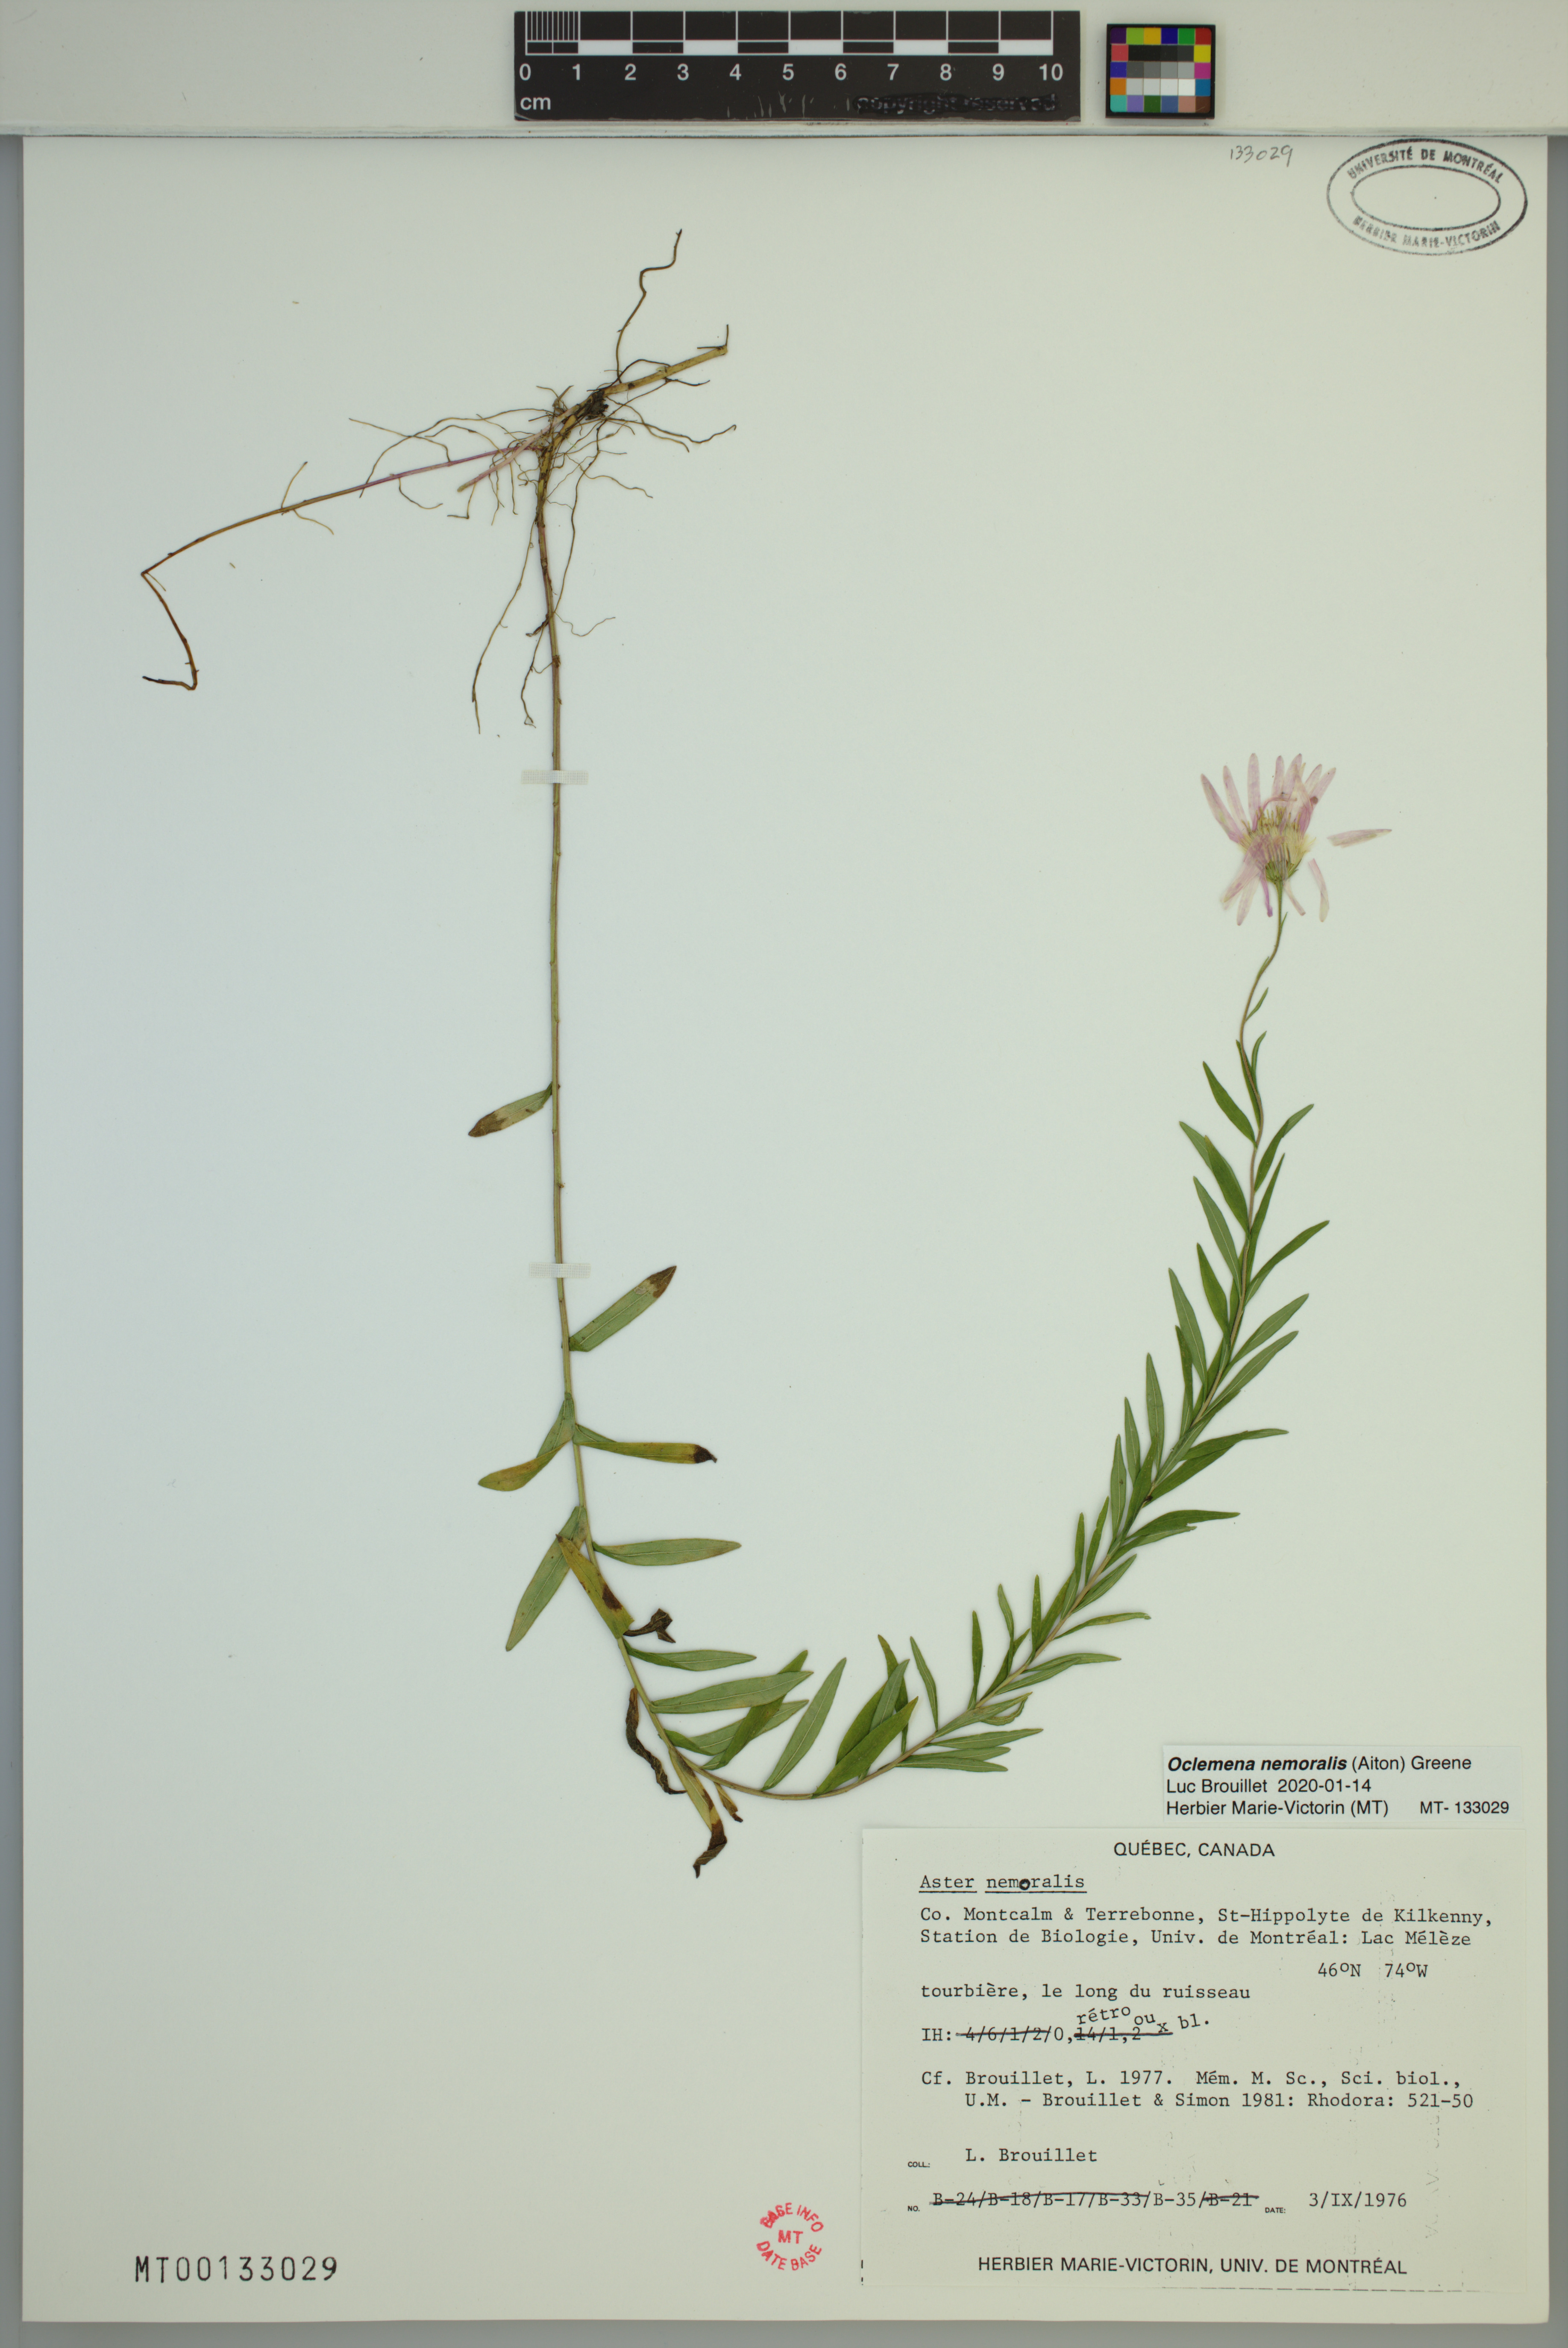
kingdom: Plantae
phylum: Tracheophyta
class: Magnoliopsida
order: Asterales
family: Asteraceae
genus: Oclemena
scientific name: Oclemena nemoralis
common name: Bog aster
